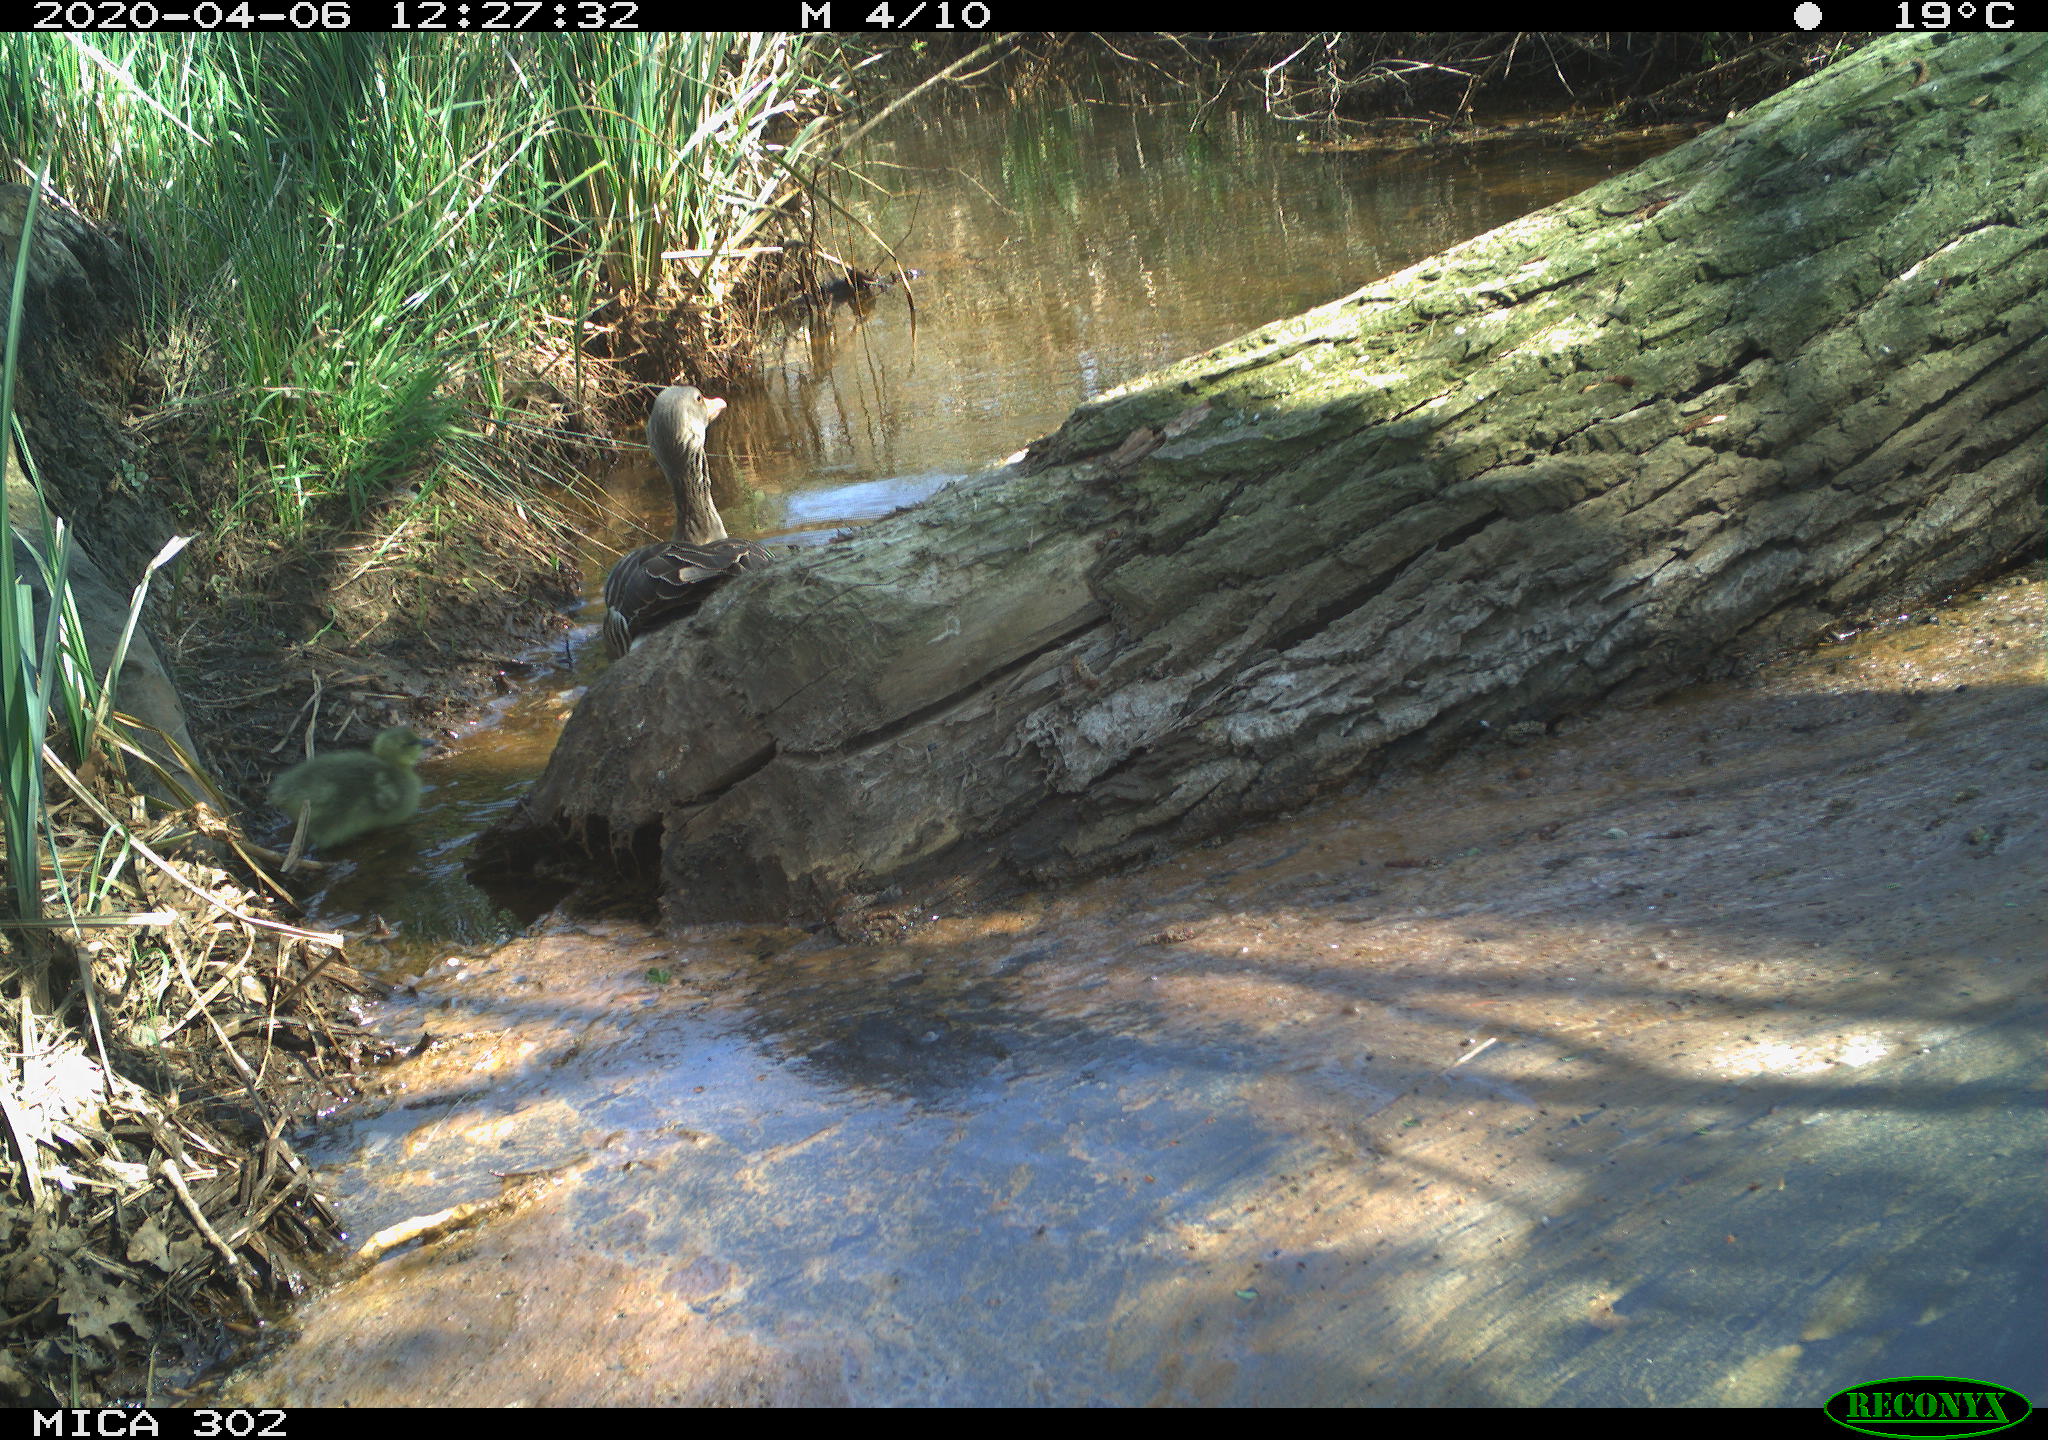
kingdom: Animalia
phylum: Chordata
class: Aves
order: Anseriformes
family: Anatidae
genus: Anser
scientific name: Anser anser
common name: Greylag goose
